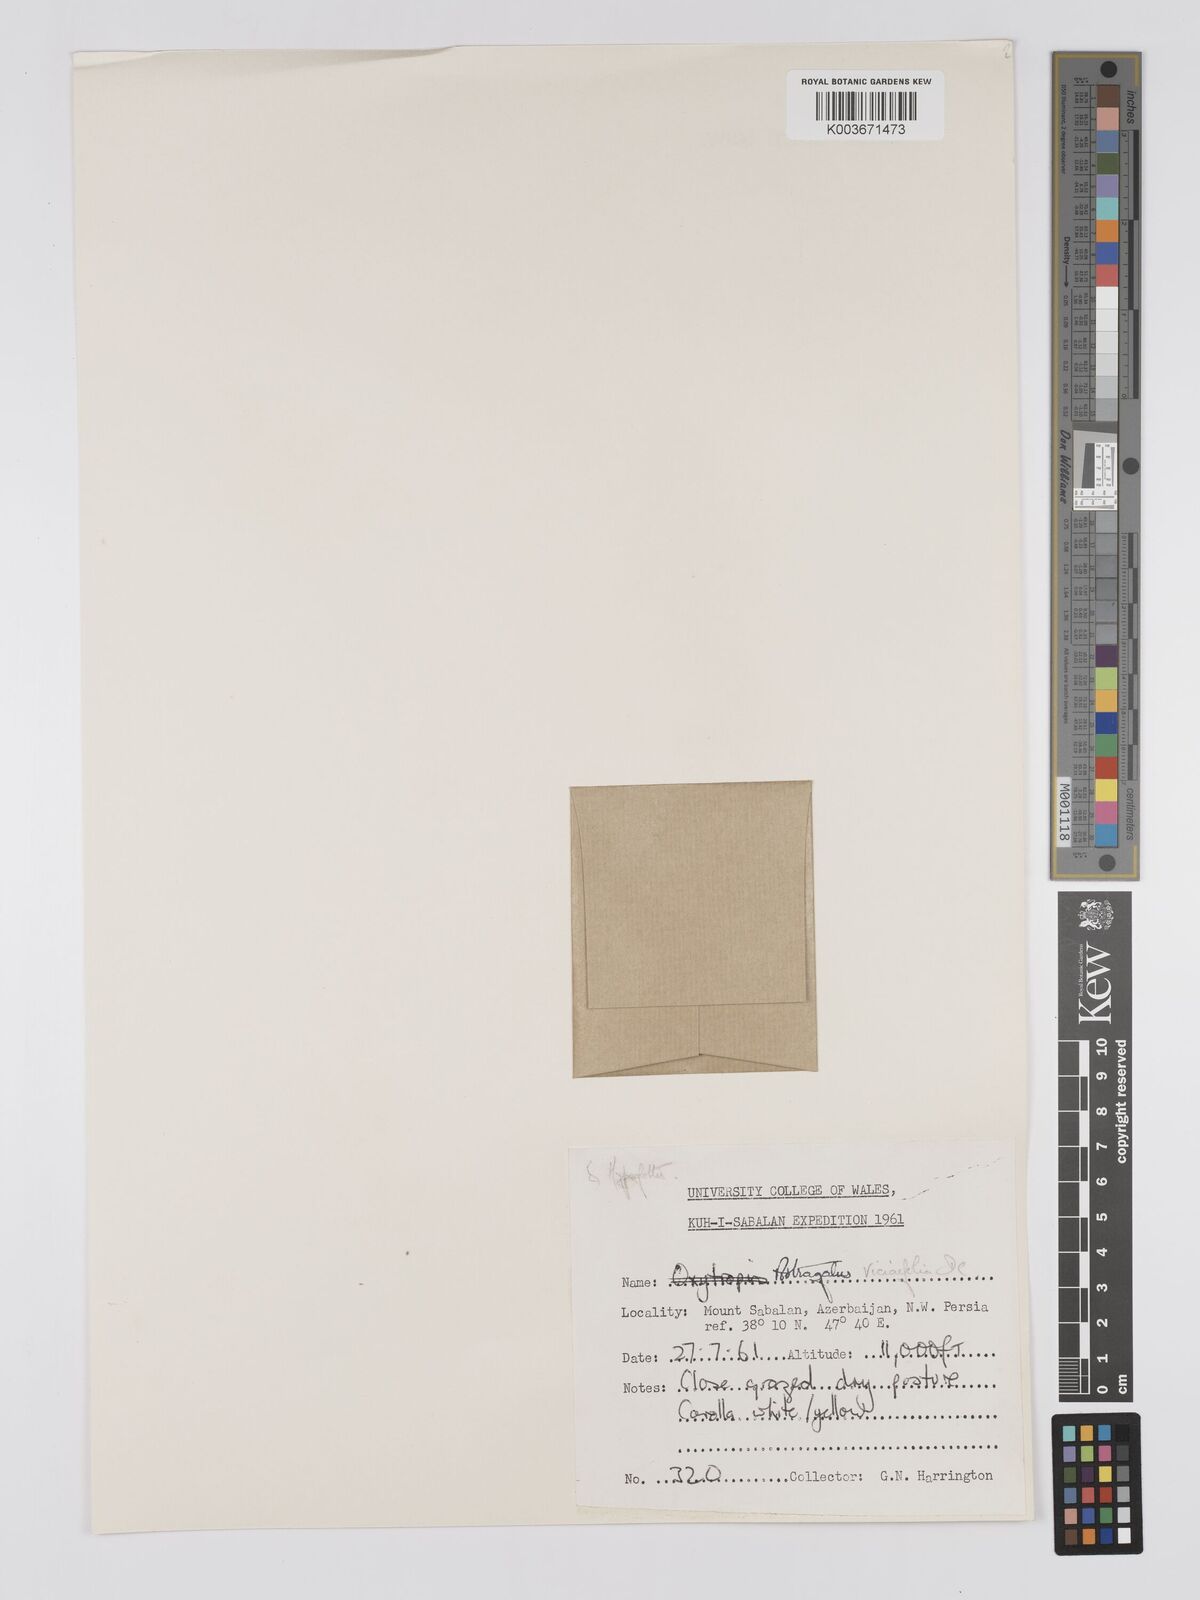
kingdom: Plantae
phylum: Tracheophyta
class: Magnoliopsida
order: Fabales
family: Fabaceae
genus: Astragalus
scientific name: Astragalus humifusus
